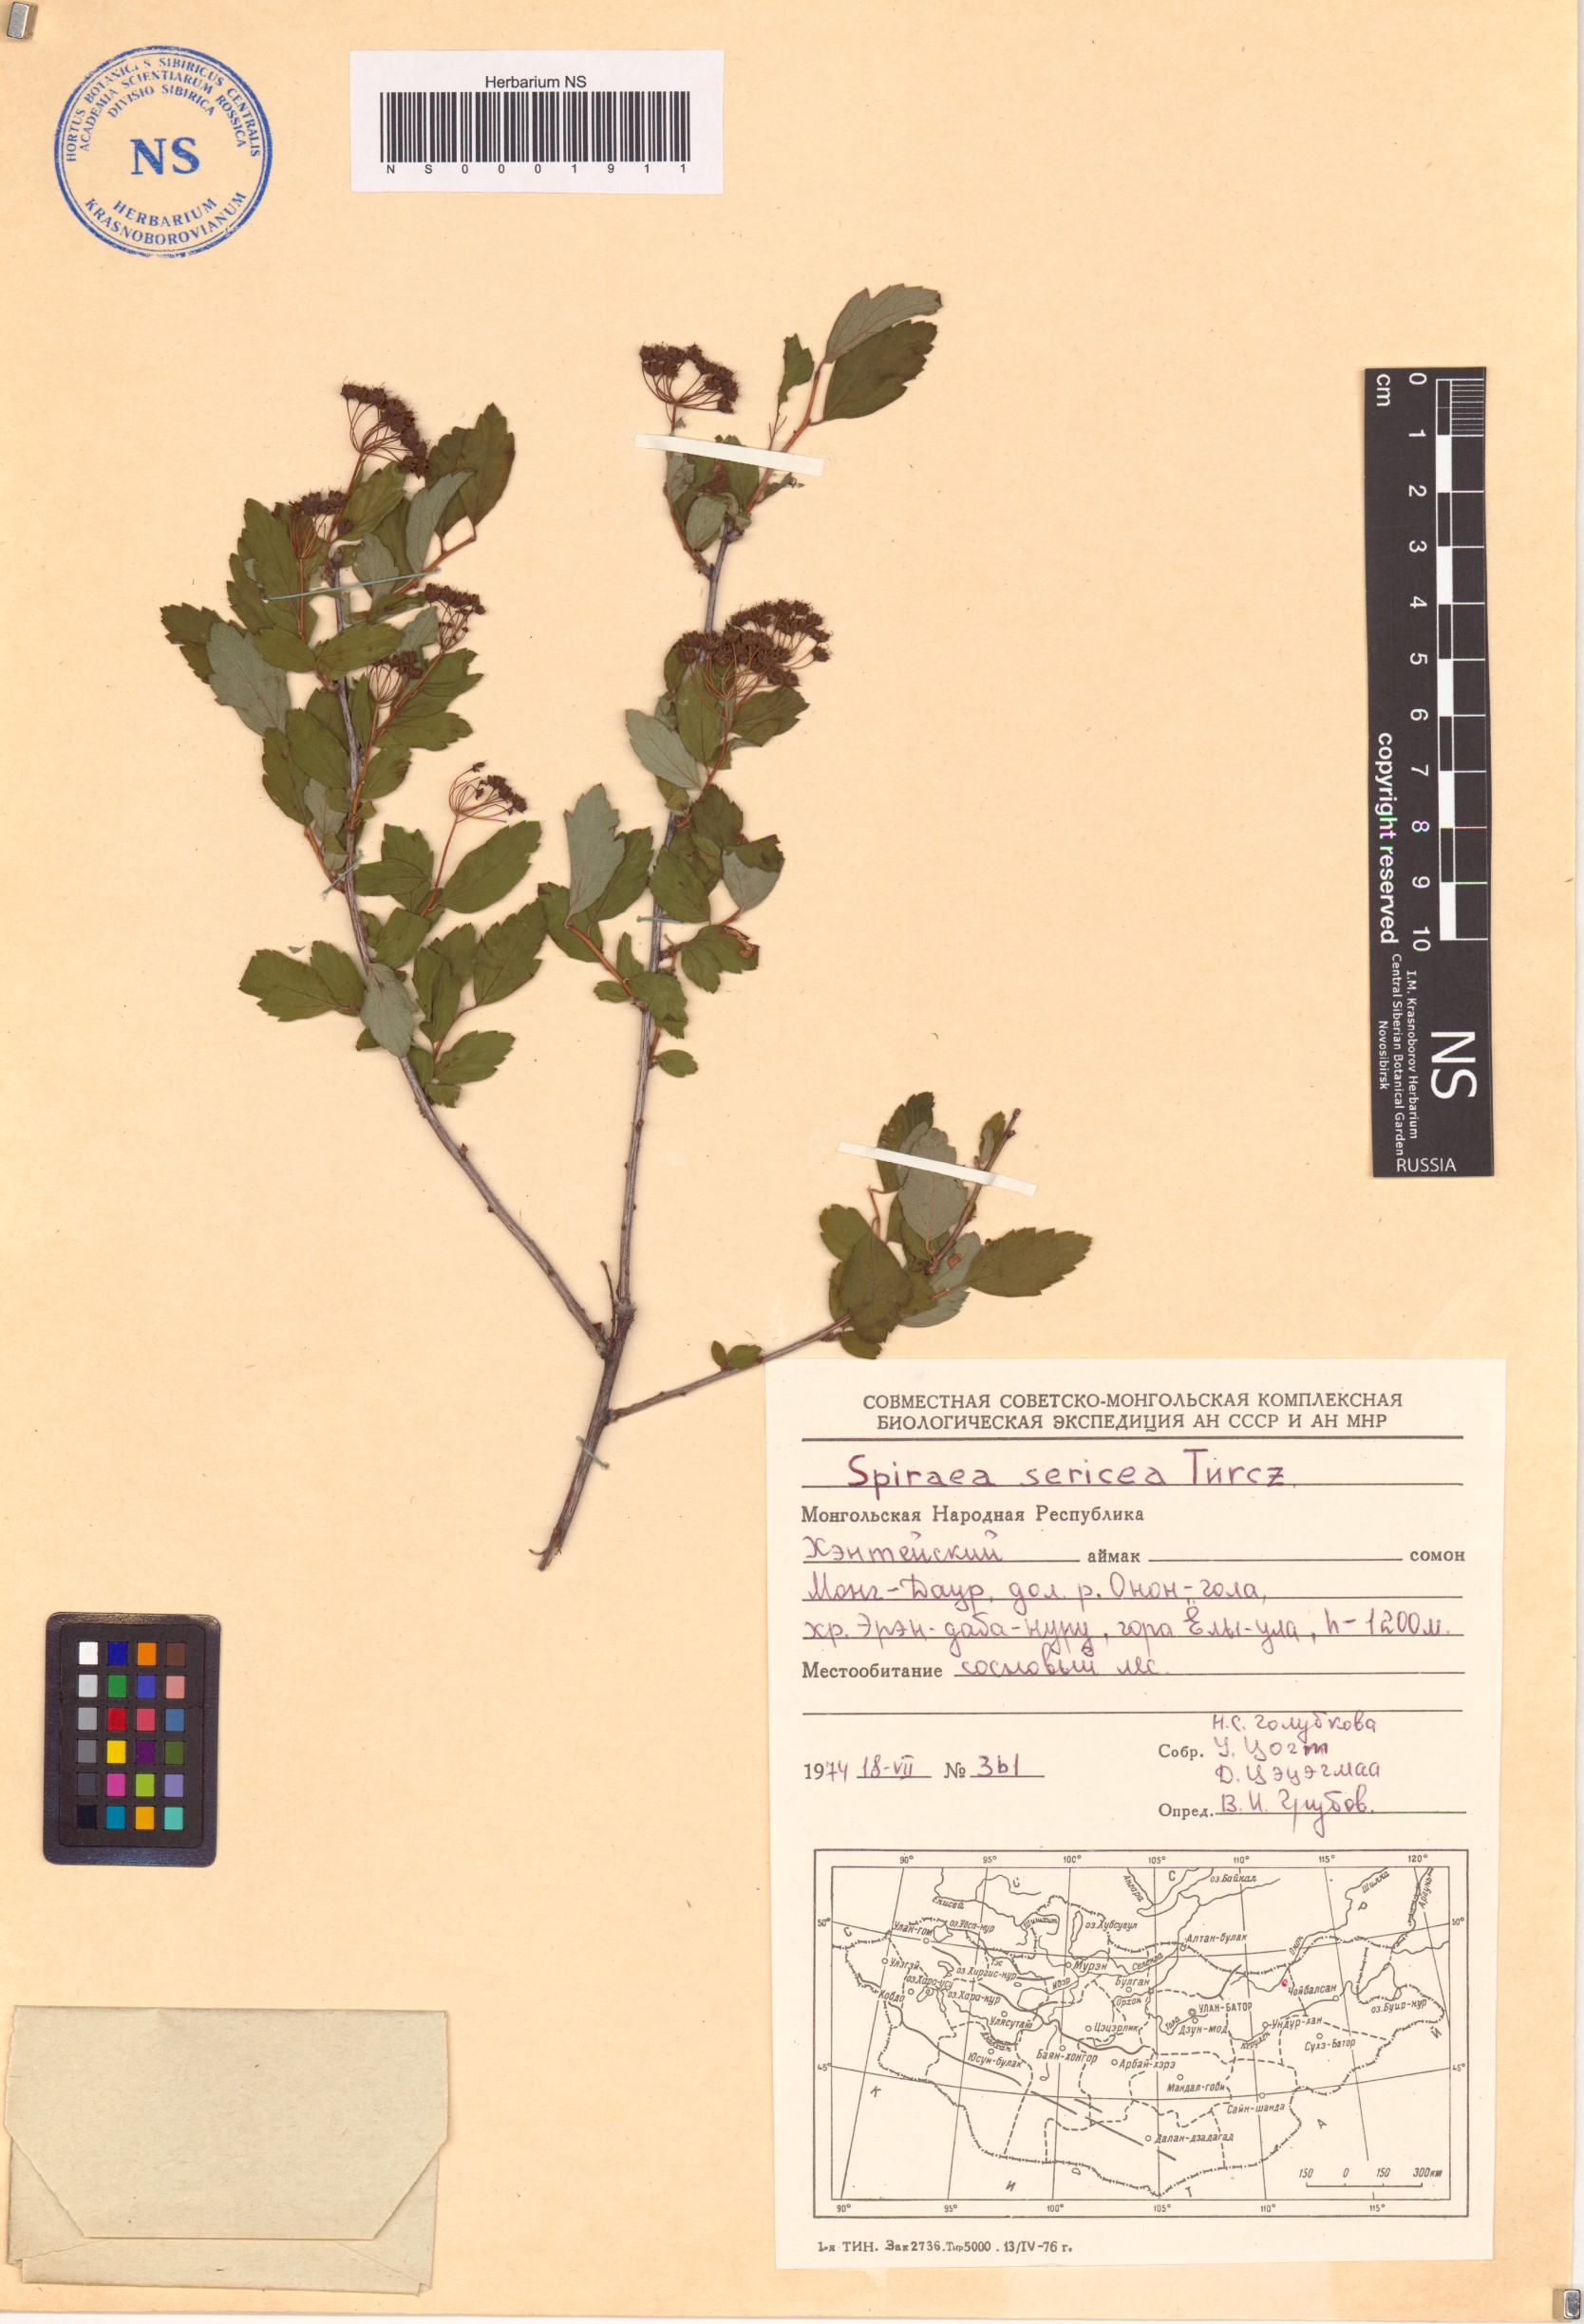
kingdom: Plantae
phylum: Tracheophyta
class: Magnoliopsida
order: Rosales
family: Rosaceae
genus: Spiraea
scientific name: Spiraea media
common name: Russian spiraea
